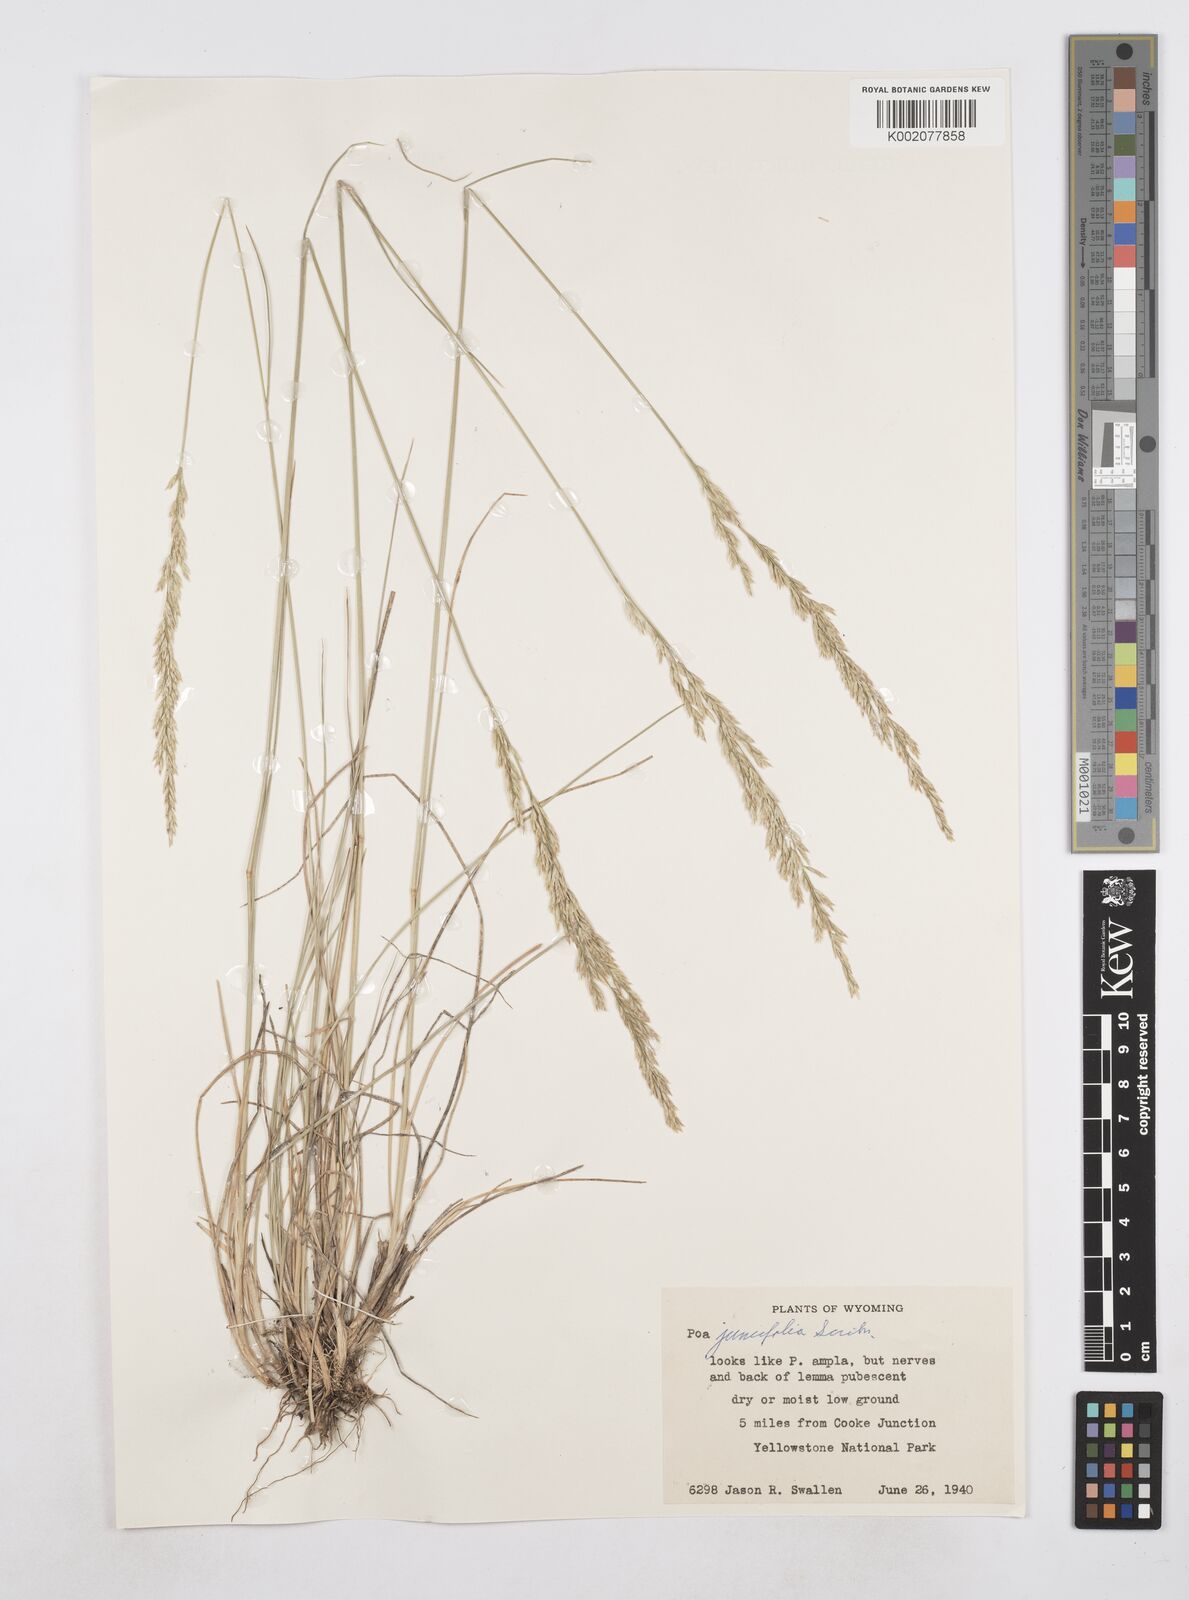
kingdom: Plantae
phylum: Tracheophyta
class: Liliopsida
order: Poales
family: Poaceae
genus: Poa
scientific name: Poa secunda
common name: Sandberg bluegrass
